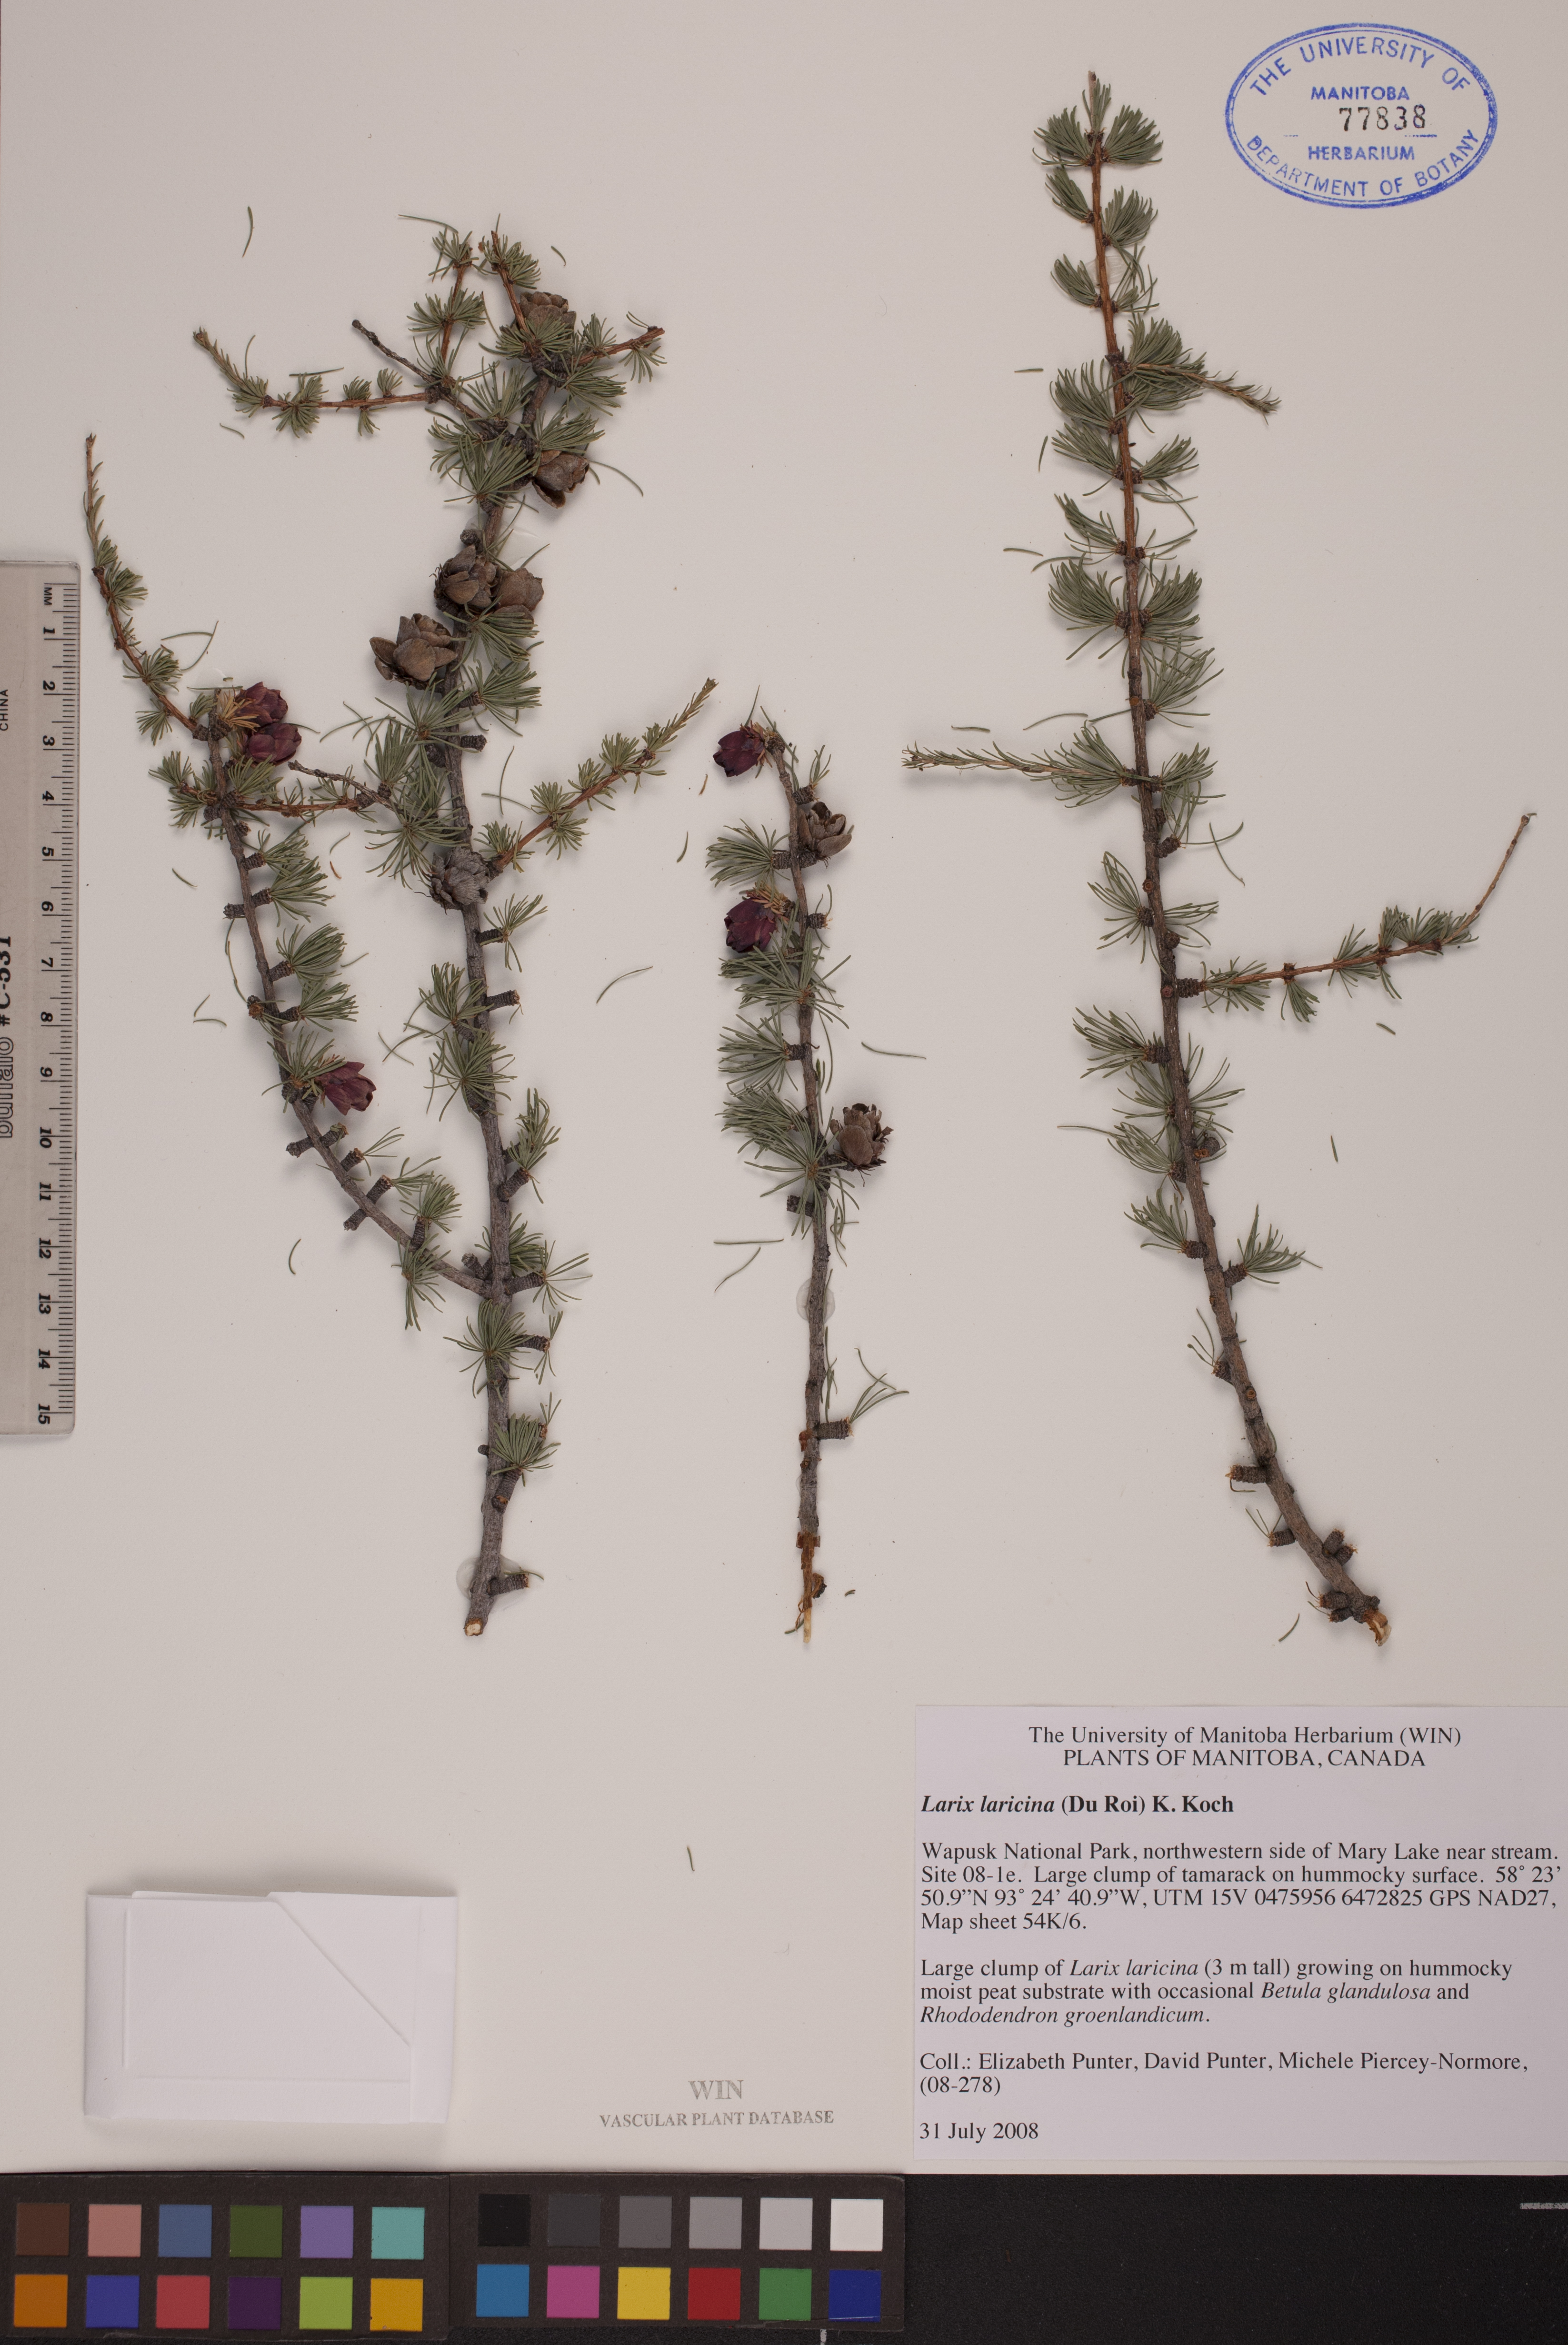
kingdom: Plantae
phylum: Tracheophyta
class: Pinopsida
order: Pinales
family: Pinaceae
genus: Larix
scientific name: Larix laricina
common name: American larch
